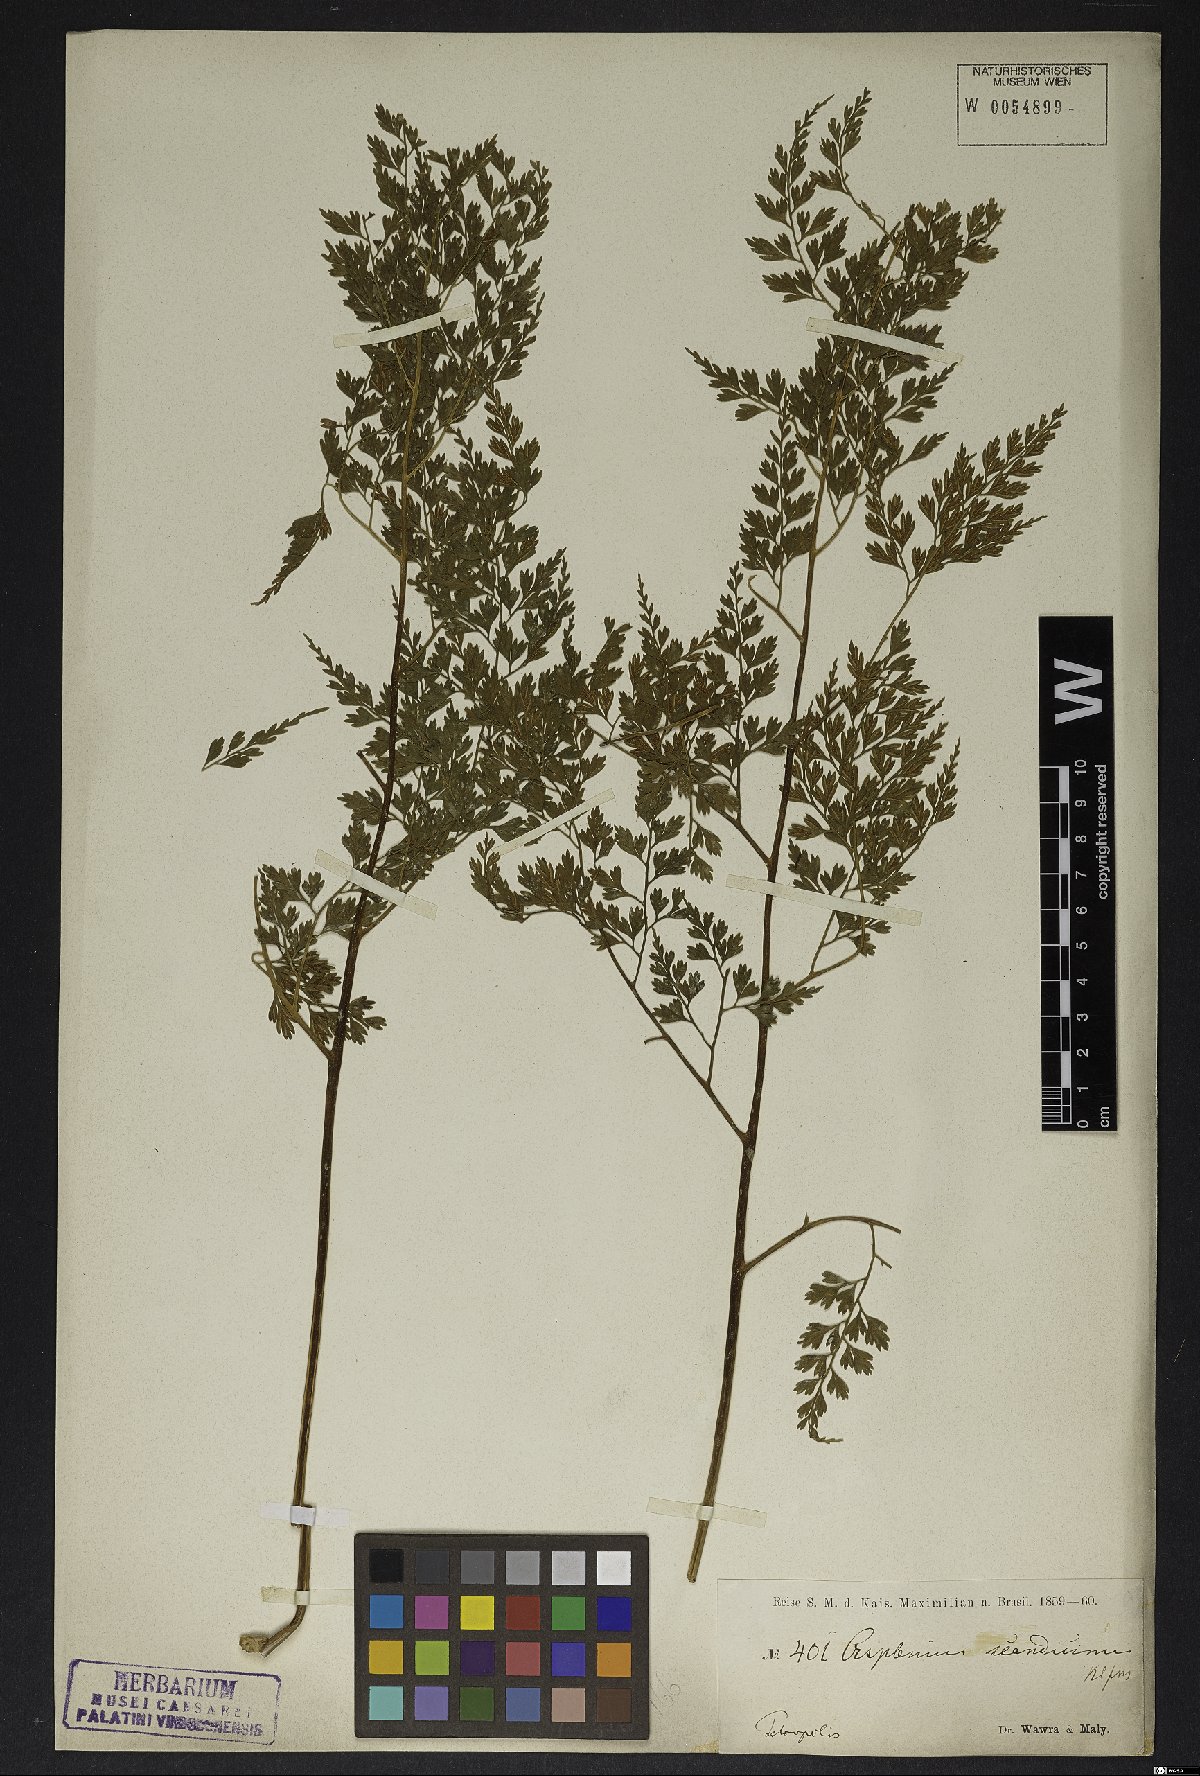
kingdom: Plantae
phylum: Tracheophyta
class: Polypodiopsida
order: Polypodiales
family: Aspleniaceae
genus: Asplenium
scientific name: Asplenium scandicinum
